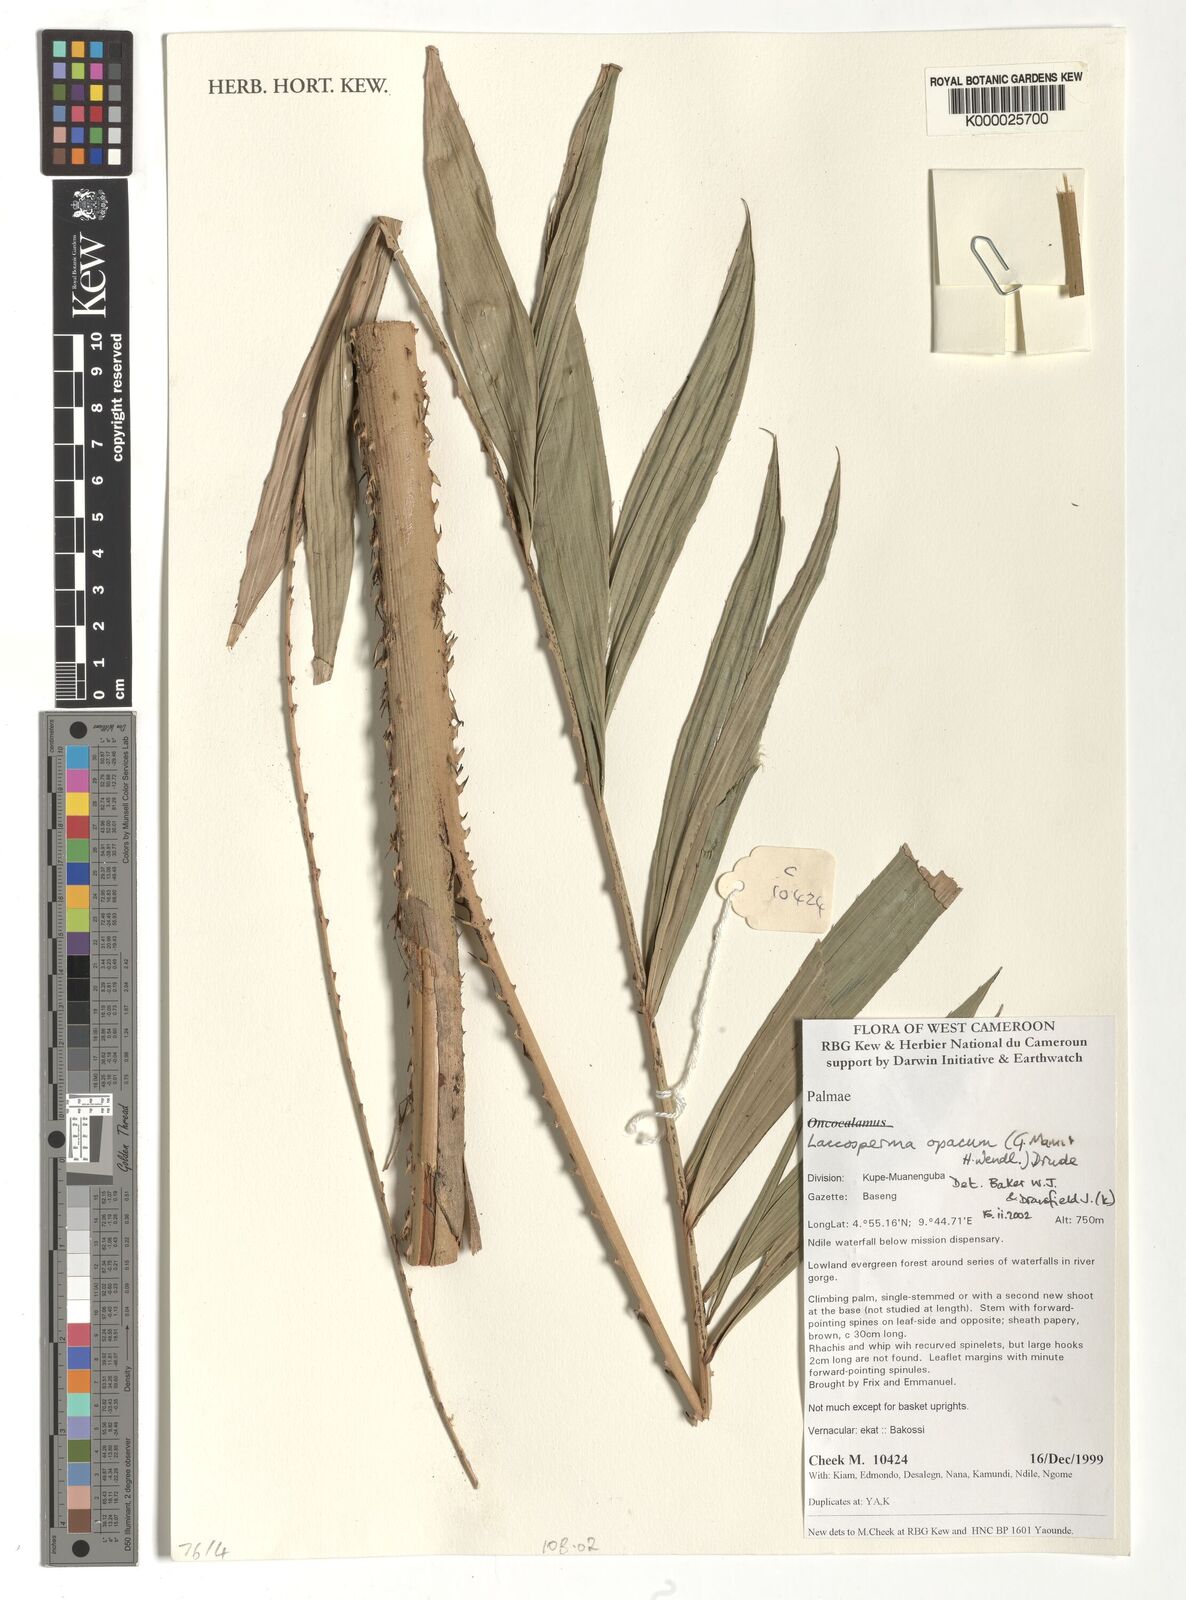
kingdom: Plantae
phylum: Tracheophyta
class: Liliopsida
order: Arecales
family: Arecaceae
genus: Laccosperma
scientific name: Laccosperma opacum
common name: Rattan
